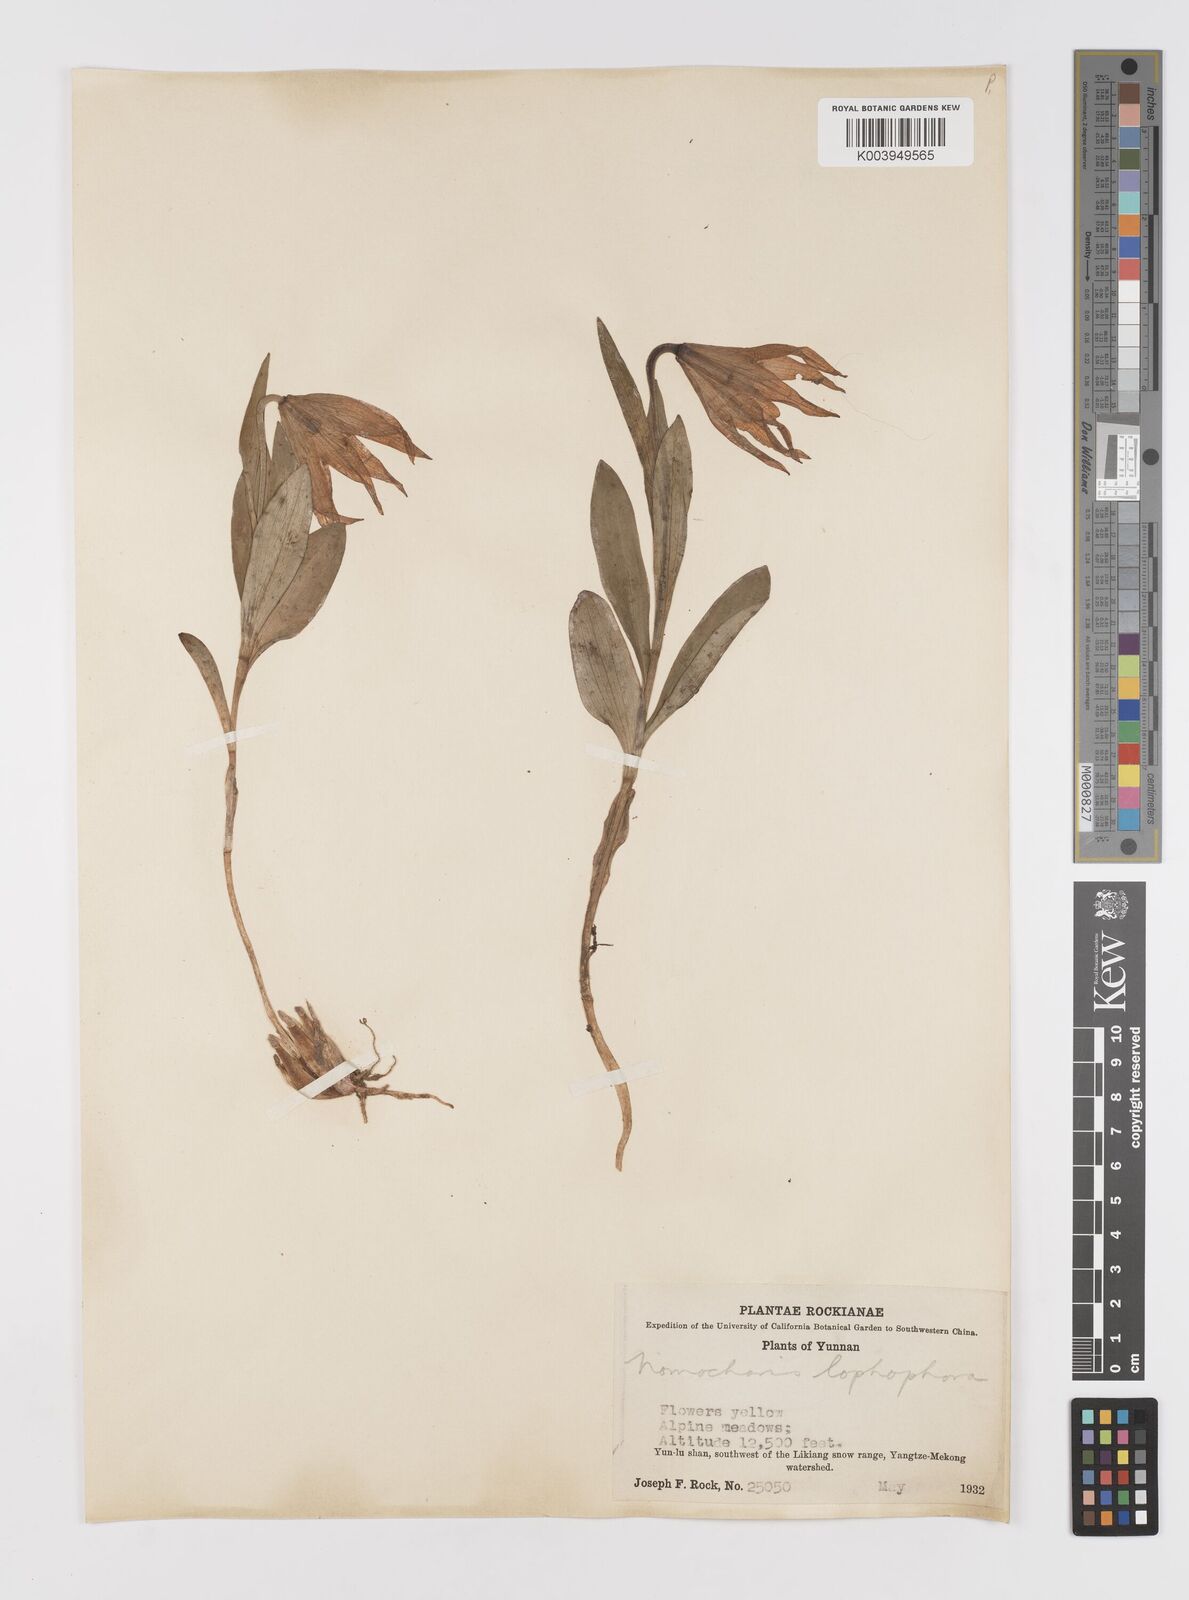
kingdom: Plantae
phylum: Tracheophyta
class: Liliopsida
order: Liliales
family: Liliaceae
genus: Lilium
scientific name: Lilium lophophorum
